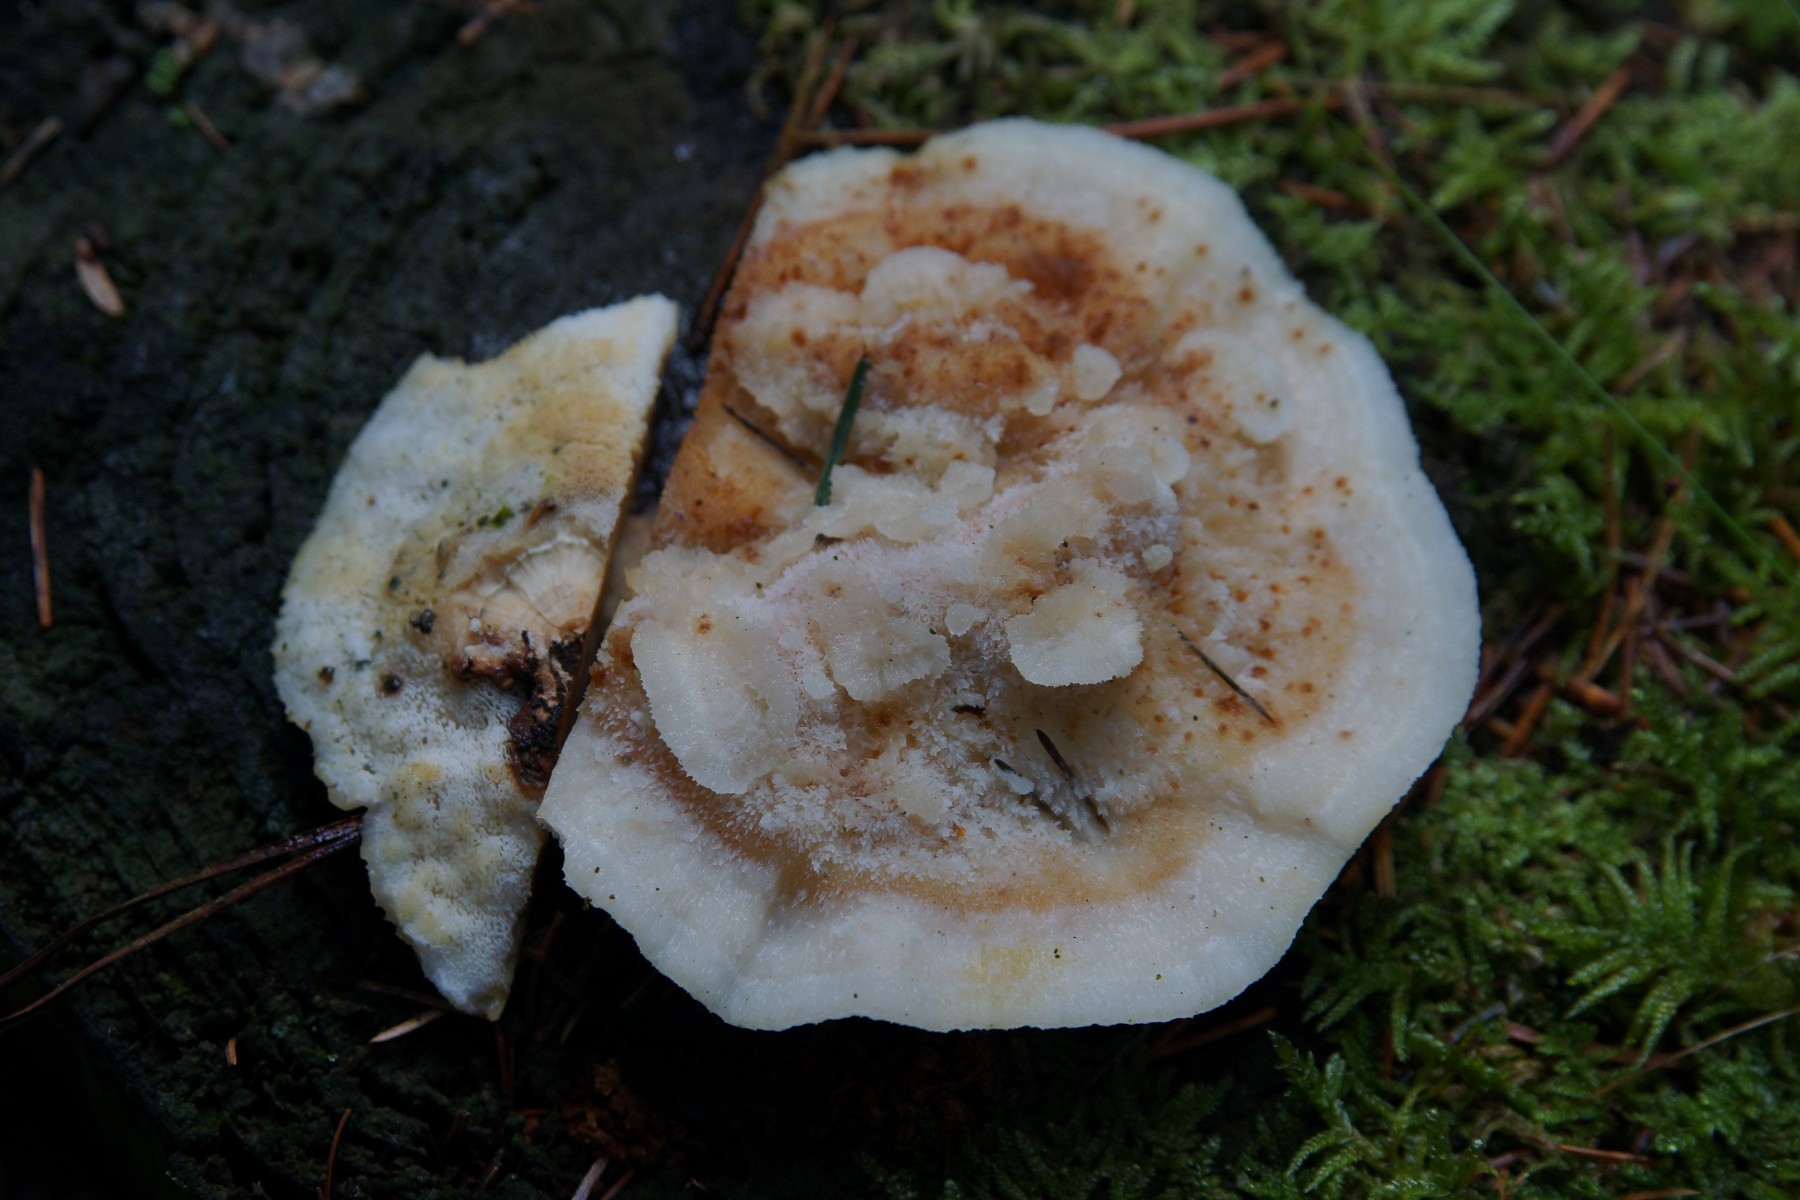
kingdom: Fungi
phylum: Basidiomycota
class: Agaricomycetes
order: Polyporales
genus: Fuscopostia
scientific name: Fuscopostia fragilis
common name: brunende kødporesvamp
